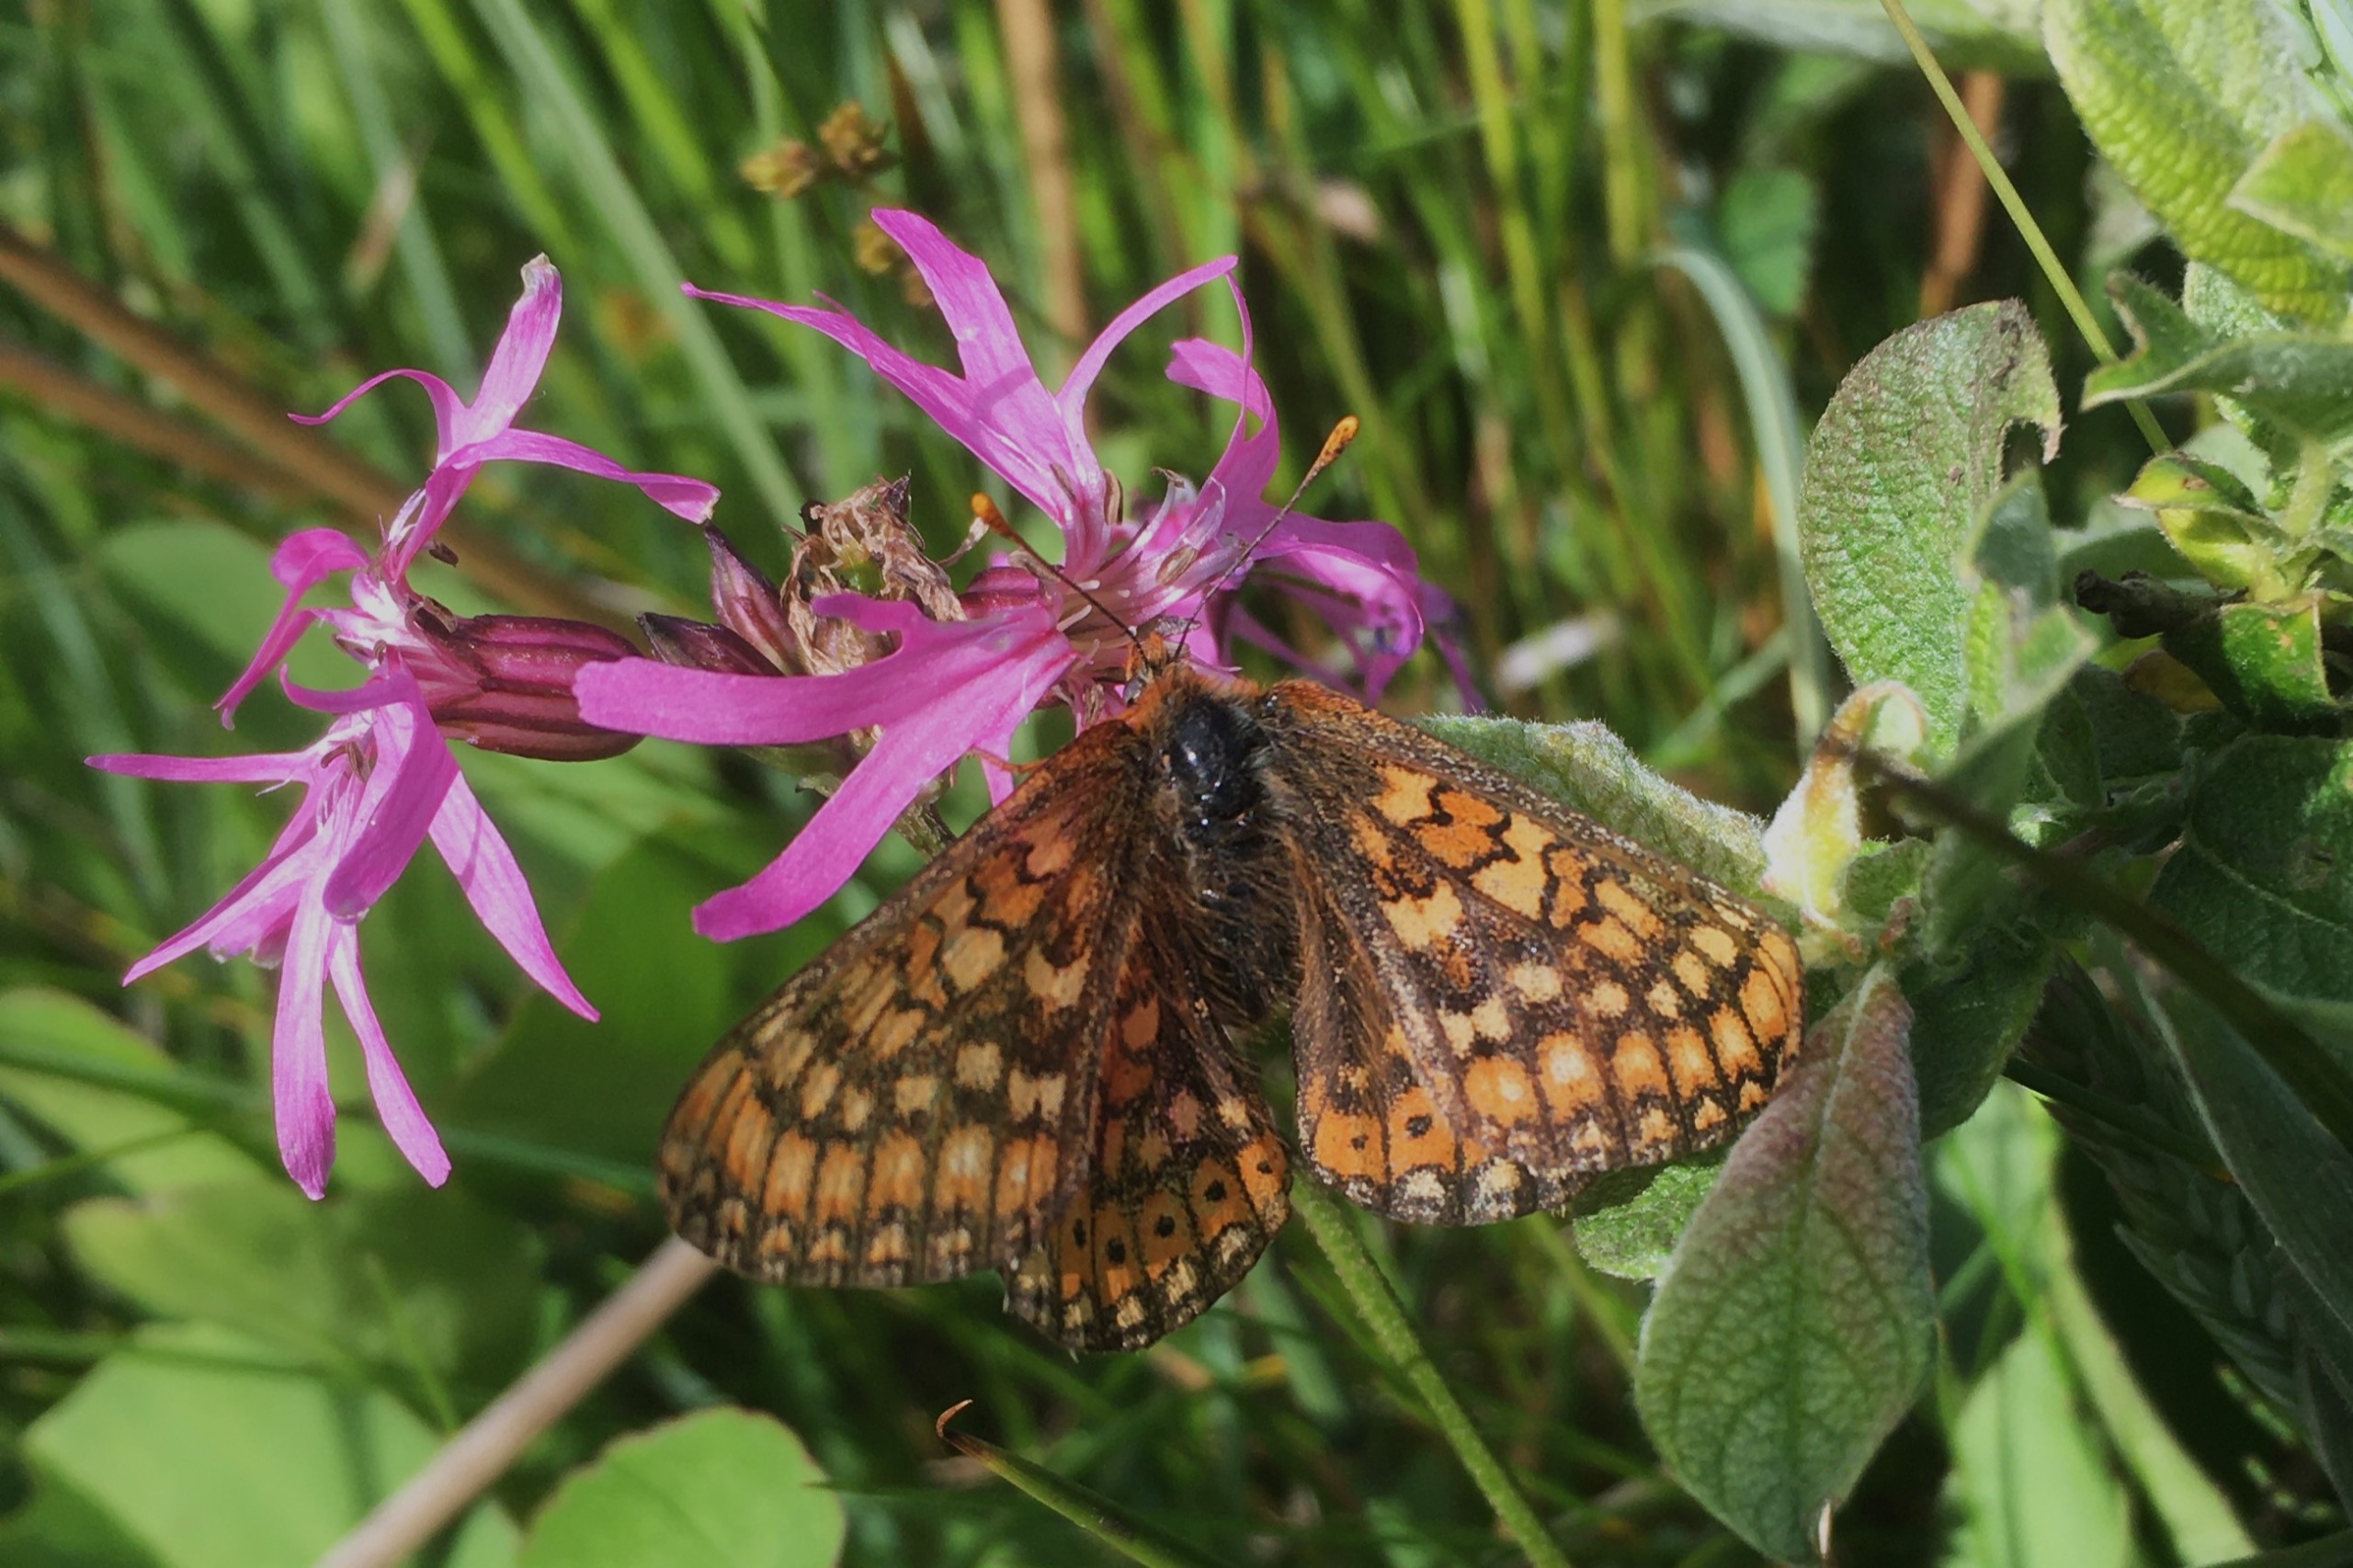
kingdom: Animalia
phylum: Arthropoda
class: Insecta
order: Lepidoptera
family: Nymphalidae
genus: Euphydryas
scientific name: Euphydryas aurinia
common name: Hedepletvinge
